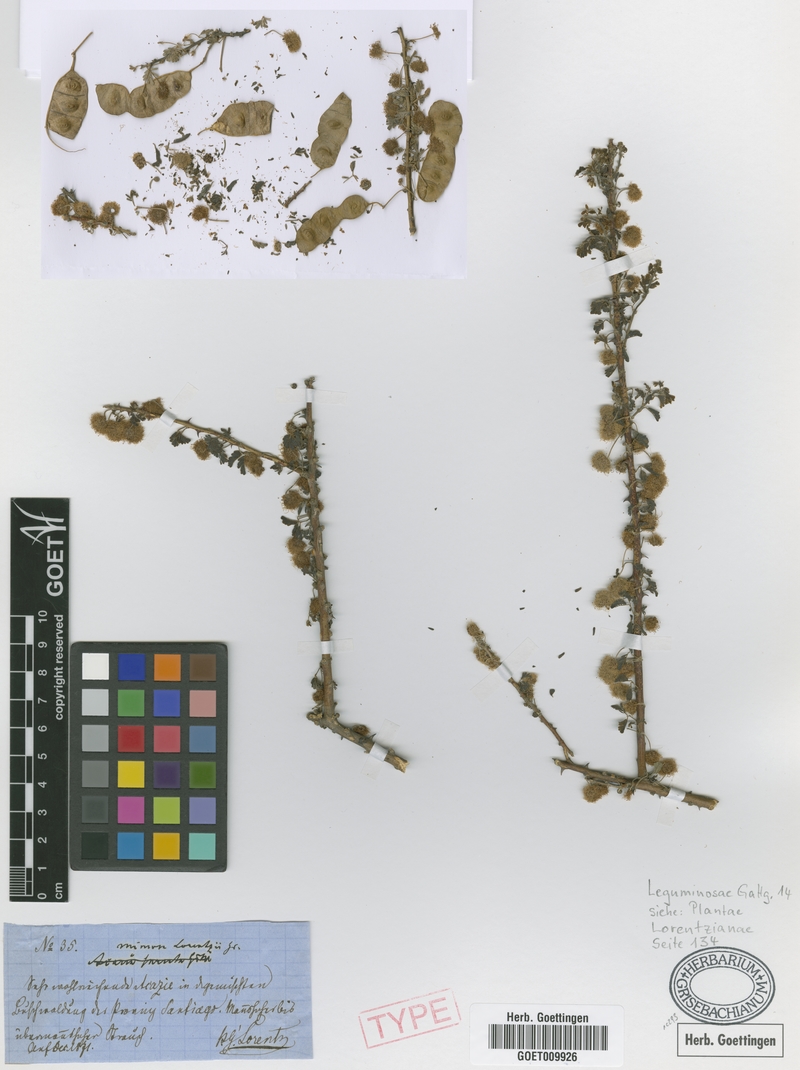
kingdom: Plantae
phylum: Tracheophyta
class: Magnoliopsida
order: Fabales
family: Fabaceae
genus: Mimosa
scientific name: Mimosa
